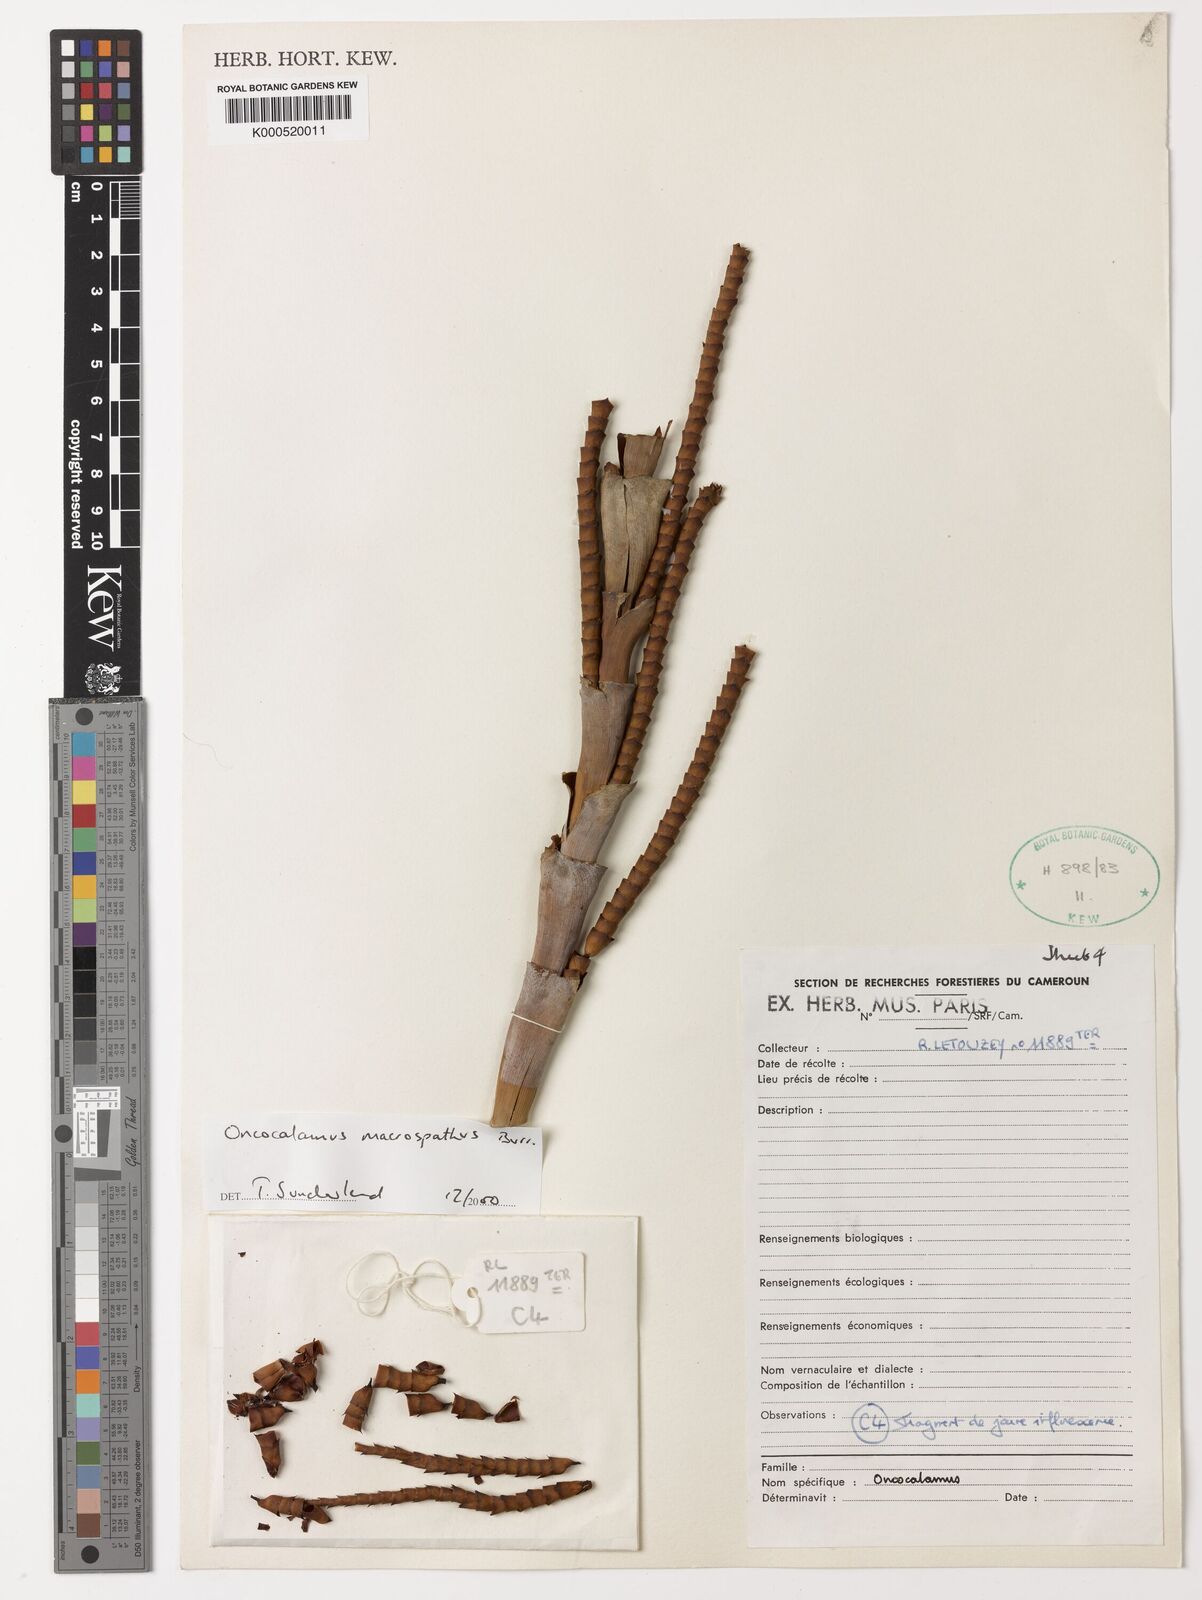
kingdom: Plantae
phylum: Tracheophyta
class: Liliopsida
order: Arecales
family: Arecaceae
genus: Oncocalamus
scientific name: Oncocalamus macrospathus
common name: Rattan
